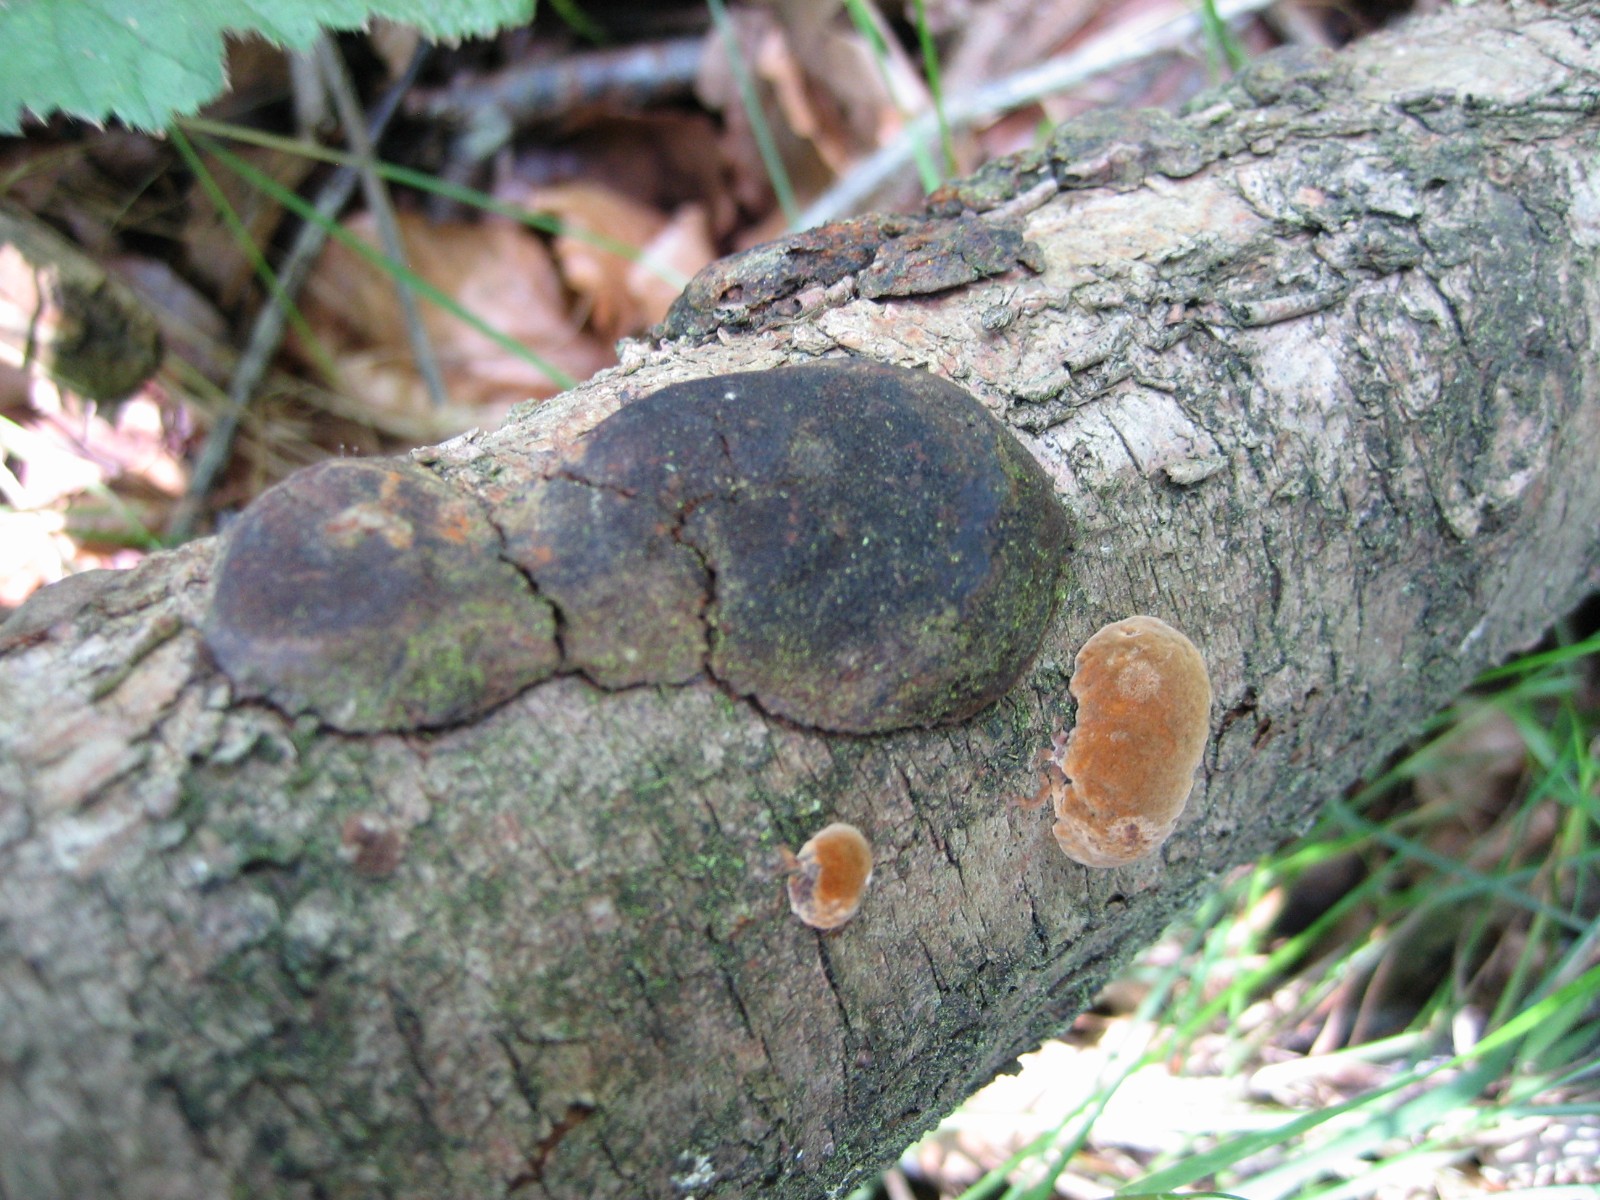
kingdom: Fungi
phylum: Basidiomycota
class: Agaricomycetes
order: Hymenochaetales
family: Hymenochaetaceae
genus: Phellinus
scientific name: Phellinus pomaceus
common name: blomme-ildporesvamp
